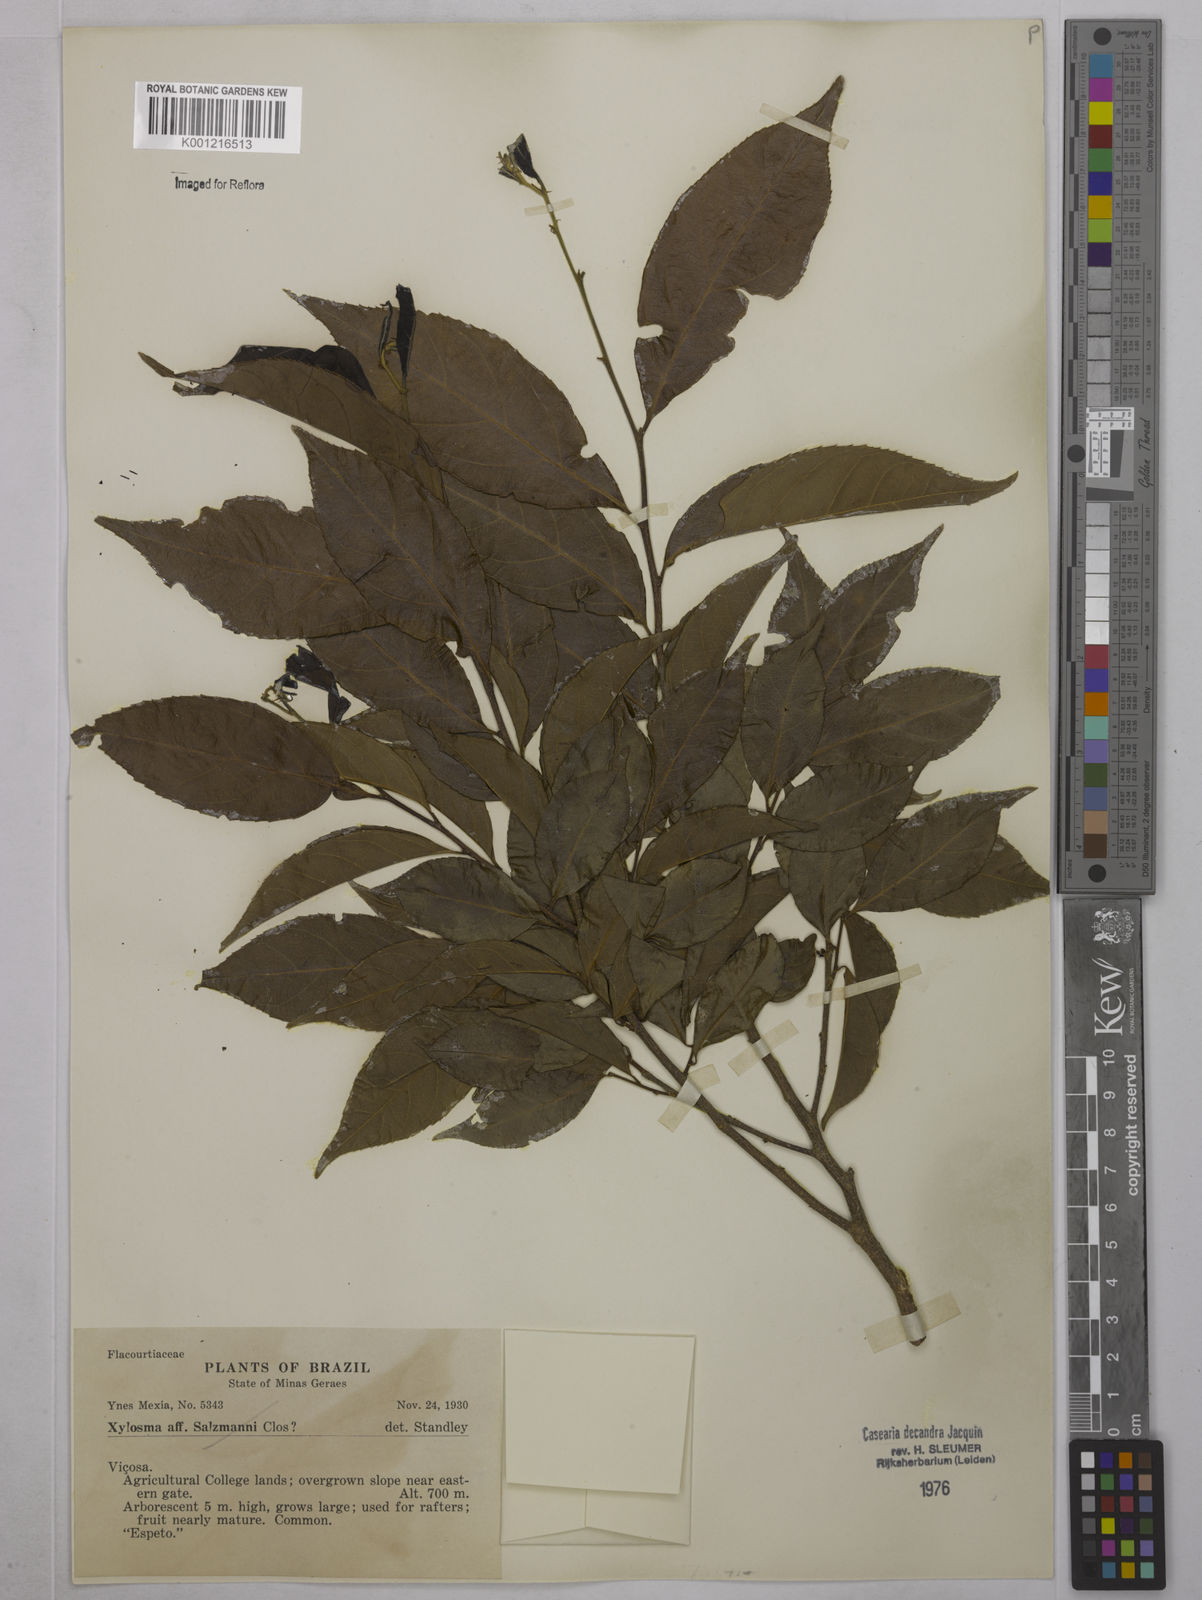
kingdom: Plantae
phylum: Tracheophyta
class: Magnoliopsida
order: Malpighiales
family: Salicaceae
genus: Casearia
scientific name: Casearia decandra
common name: Crack open
